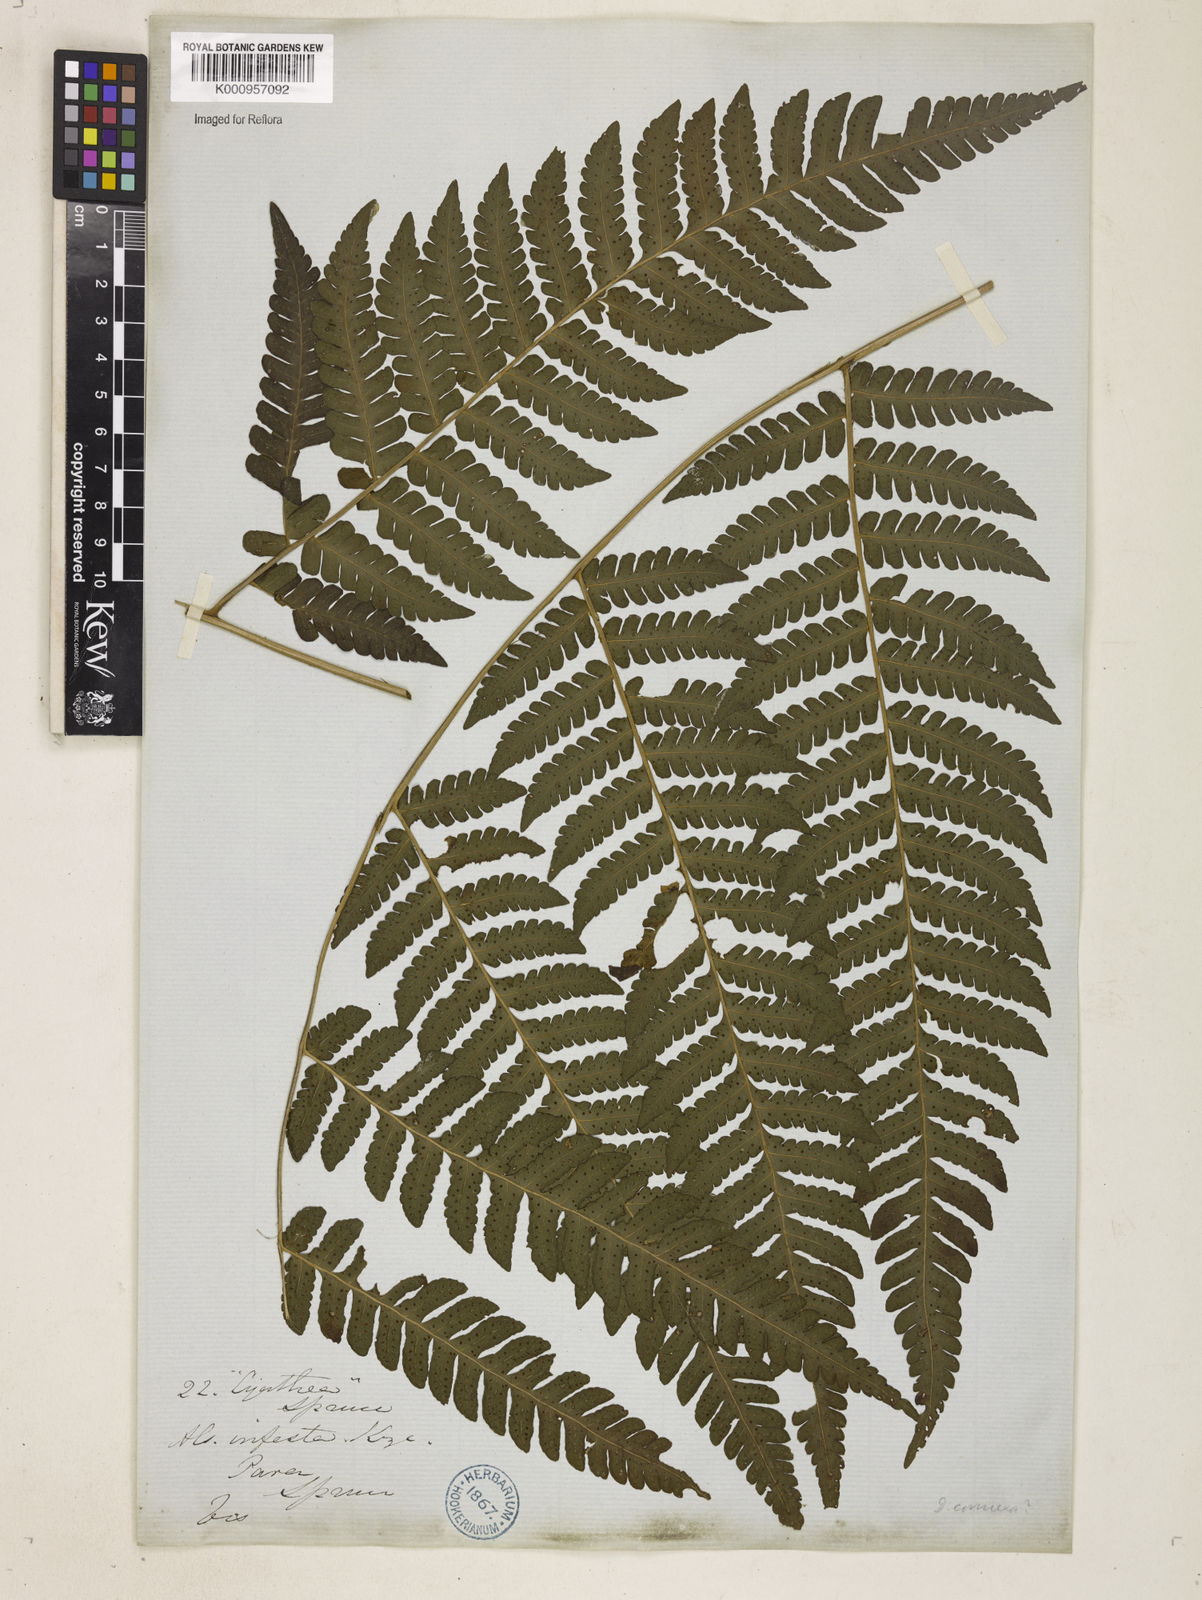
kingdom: Plantae
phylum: Tracheophyta
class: Polypodiopsida
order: Polypodiales
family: Dryopteridaceae
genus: Megalastrum
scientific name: Megalastrum connexum
